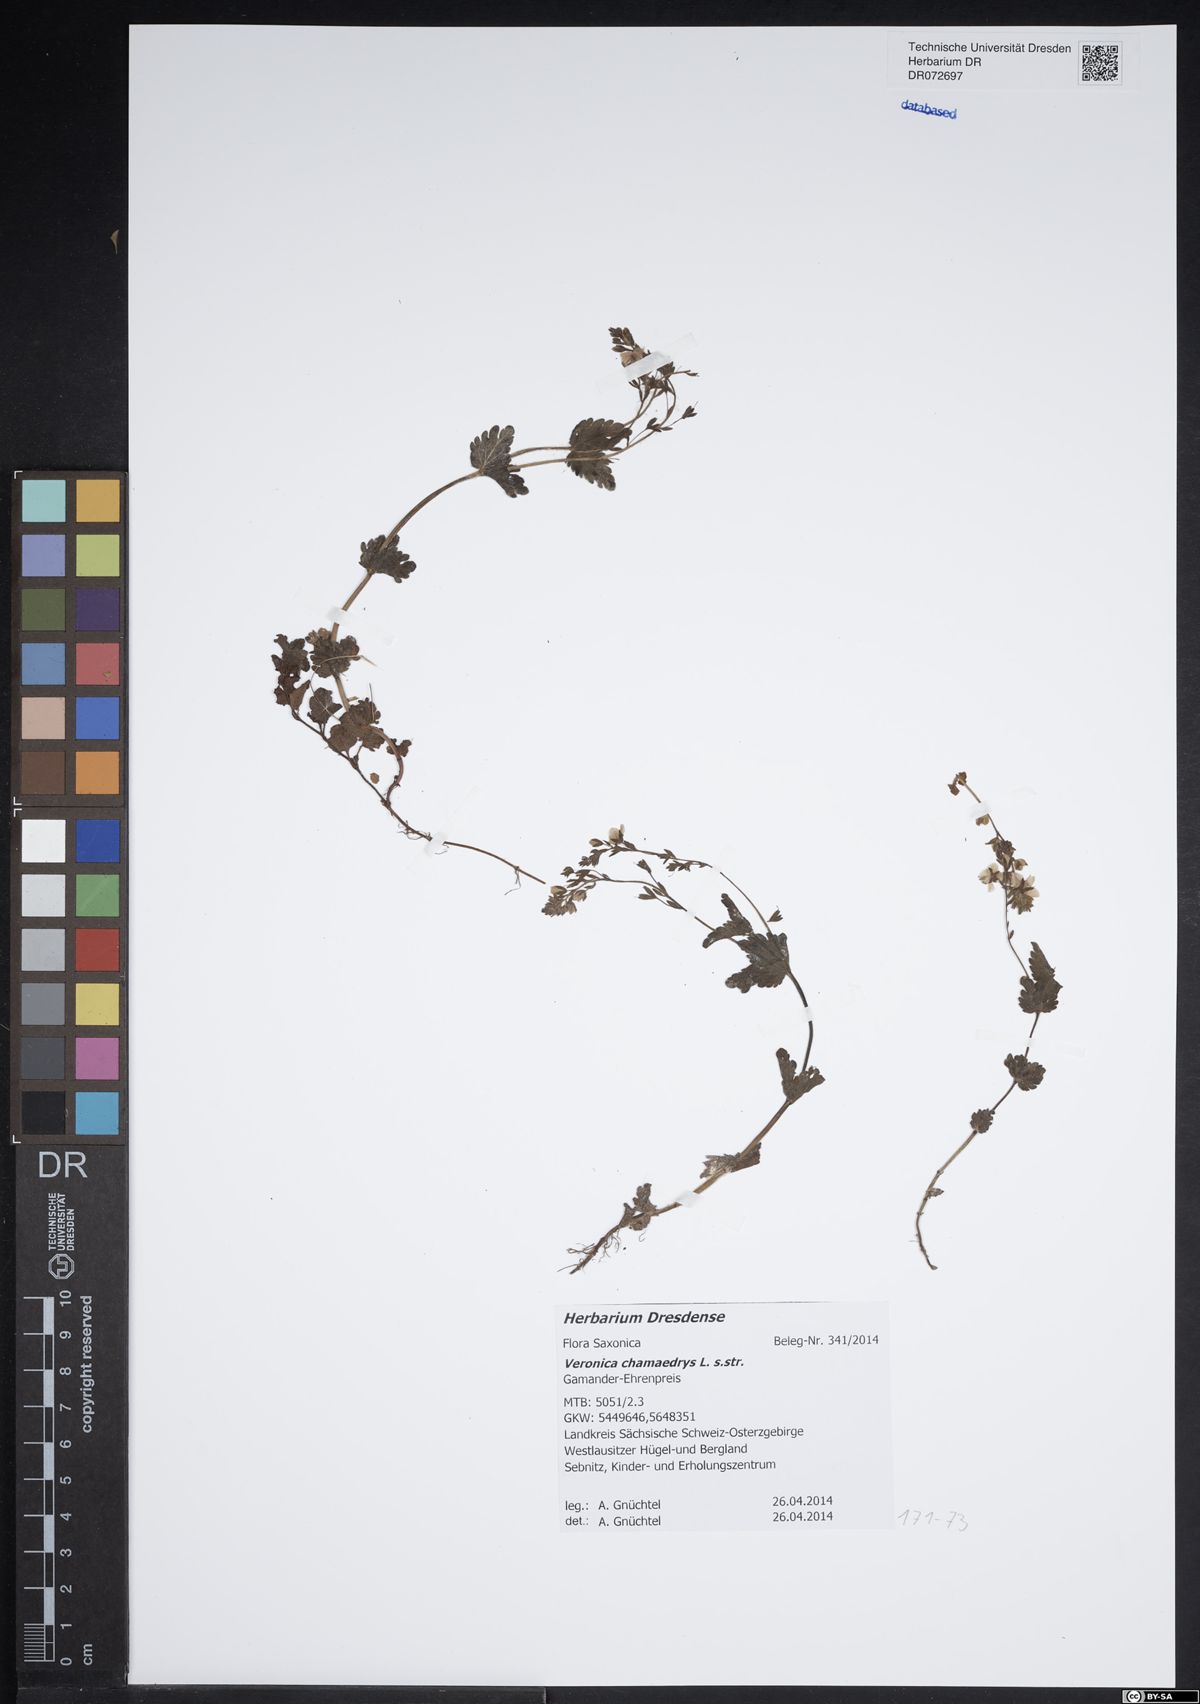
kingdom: Plantae
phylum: Tracheophyta
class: Magnoliopsida
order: Lamiales
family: Plantaginaceae
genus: Veronica
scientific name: Veronica chamaedrys
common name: Germander speedwell
